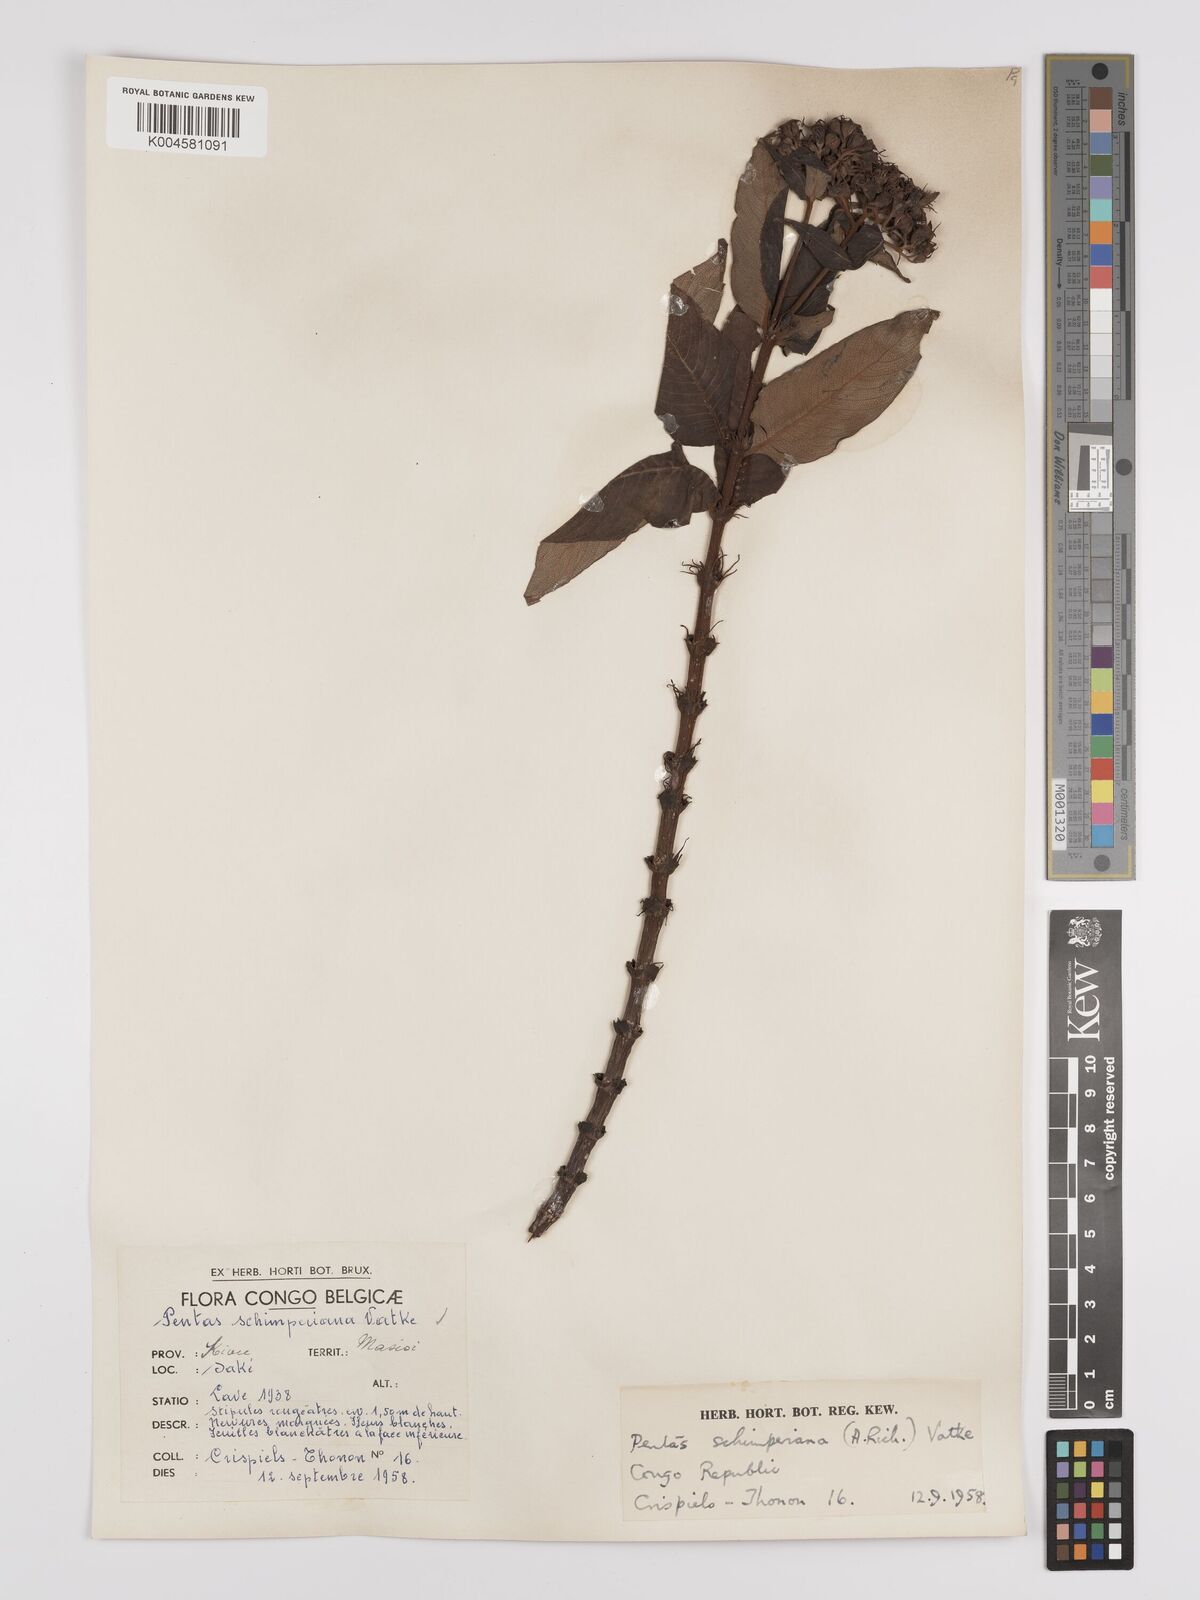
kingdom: Plantae
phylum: Tracheophyta
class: Magnoliopsida
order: Gentianales
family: Rubiaceae
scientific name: Rubiaceae
